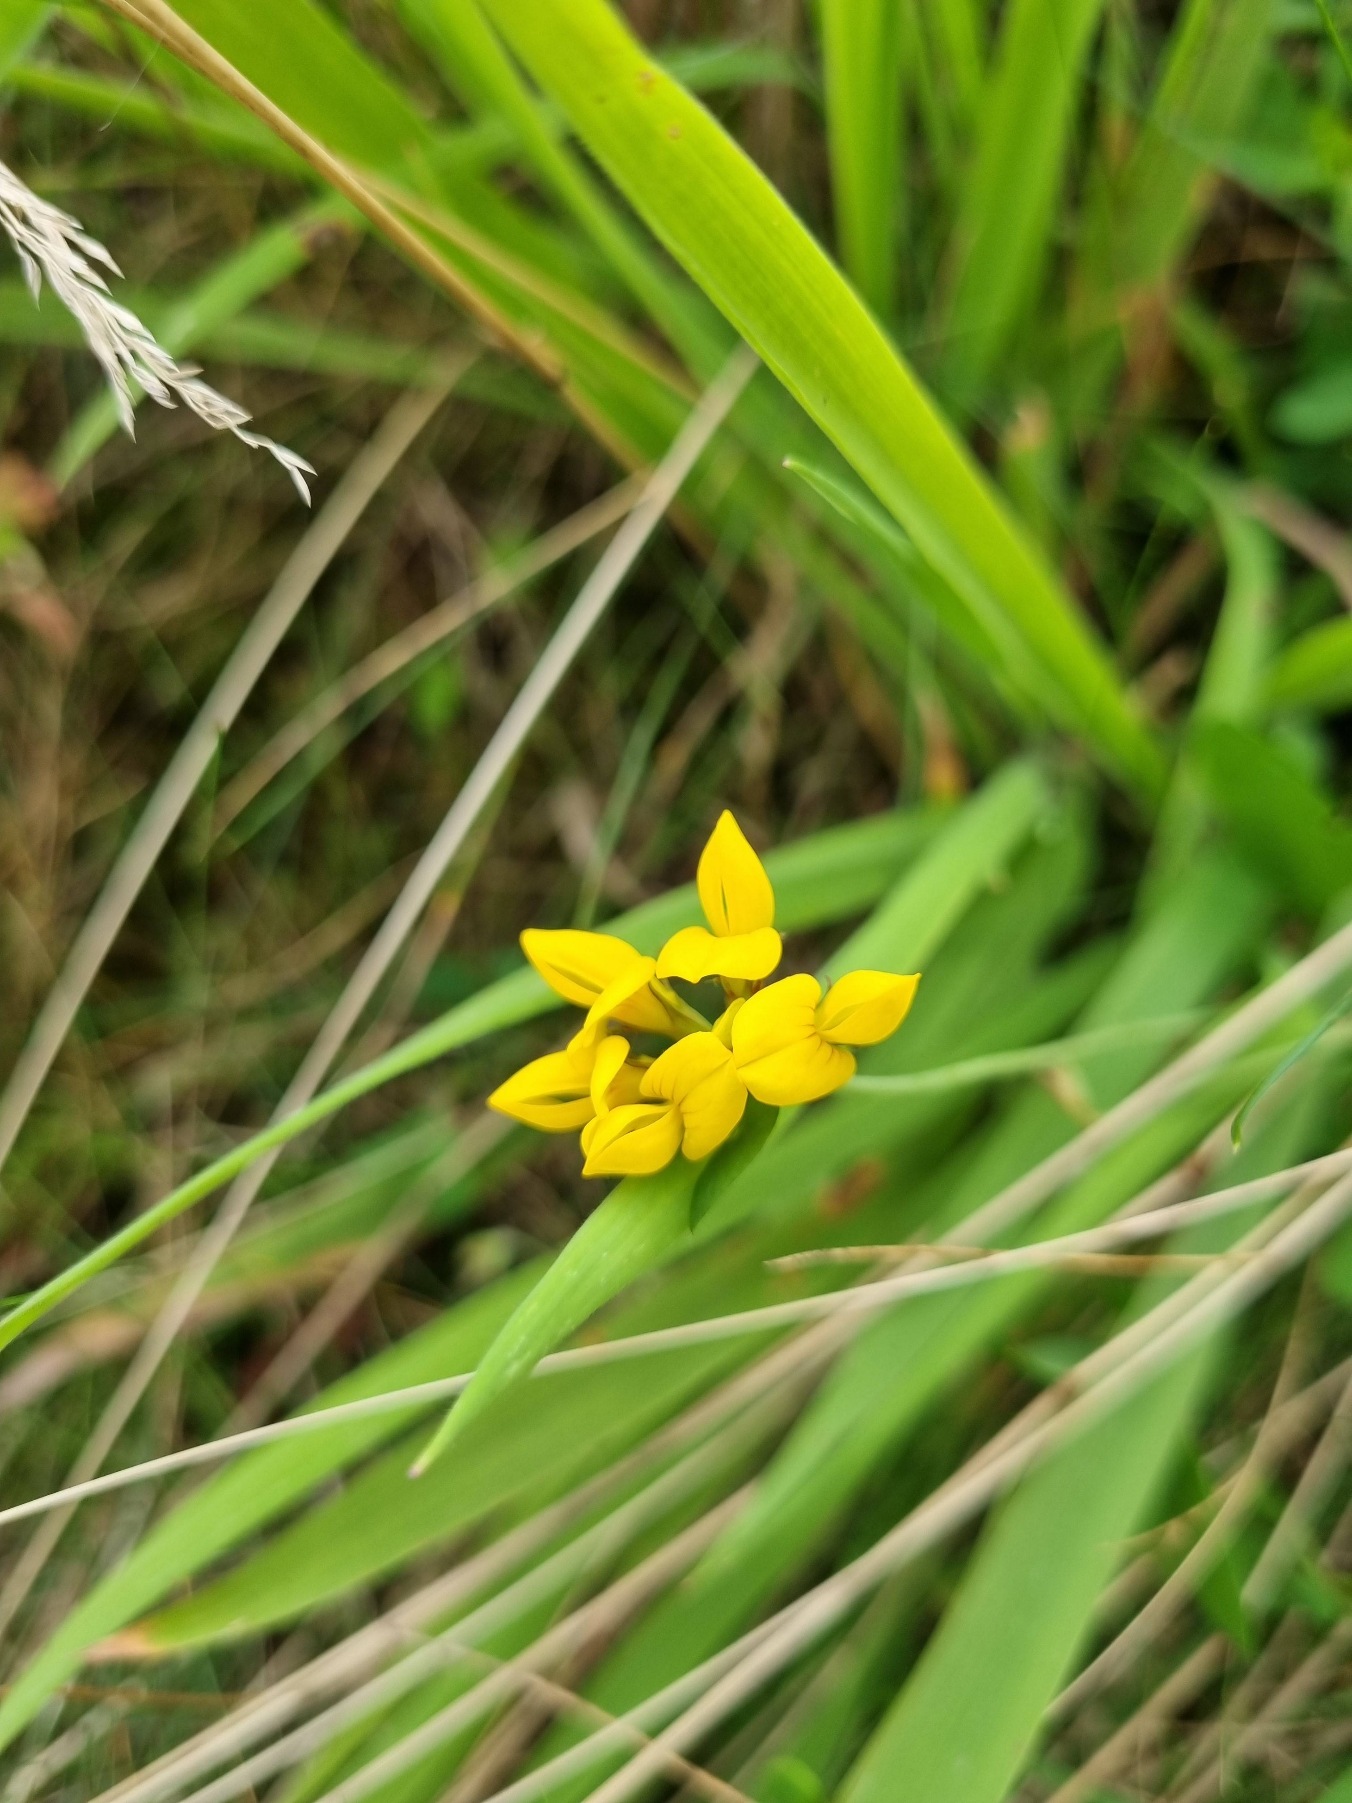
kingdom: Plantae
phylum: Tracheophyta
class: Magnoliopsida
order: Fabales
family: Fabaceae
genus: Lotus
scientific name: Lotus
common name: Kællingetandslægten
